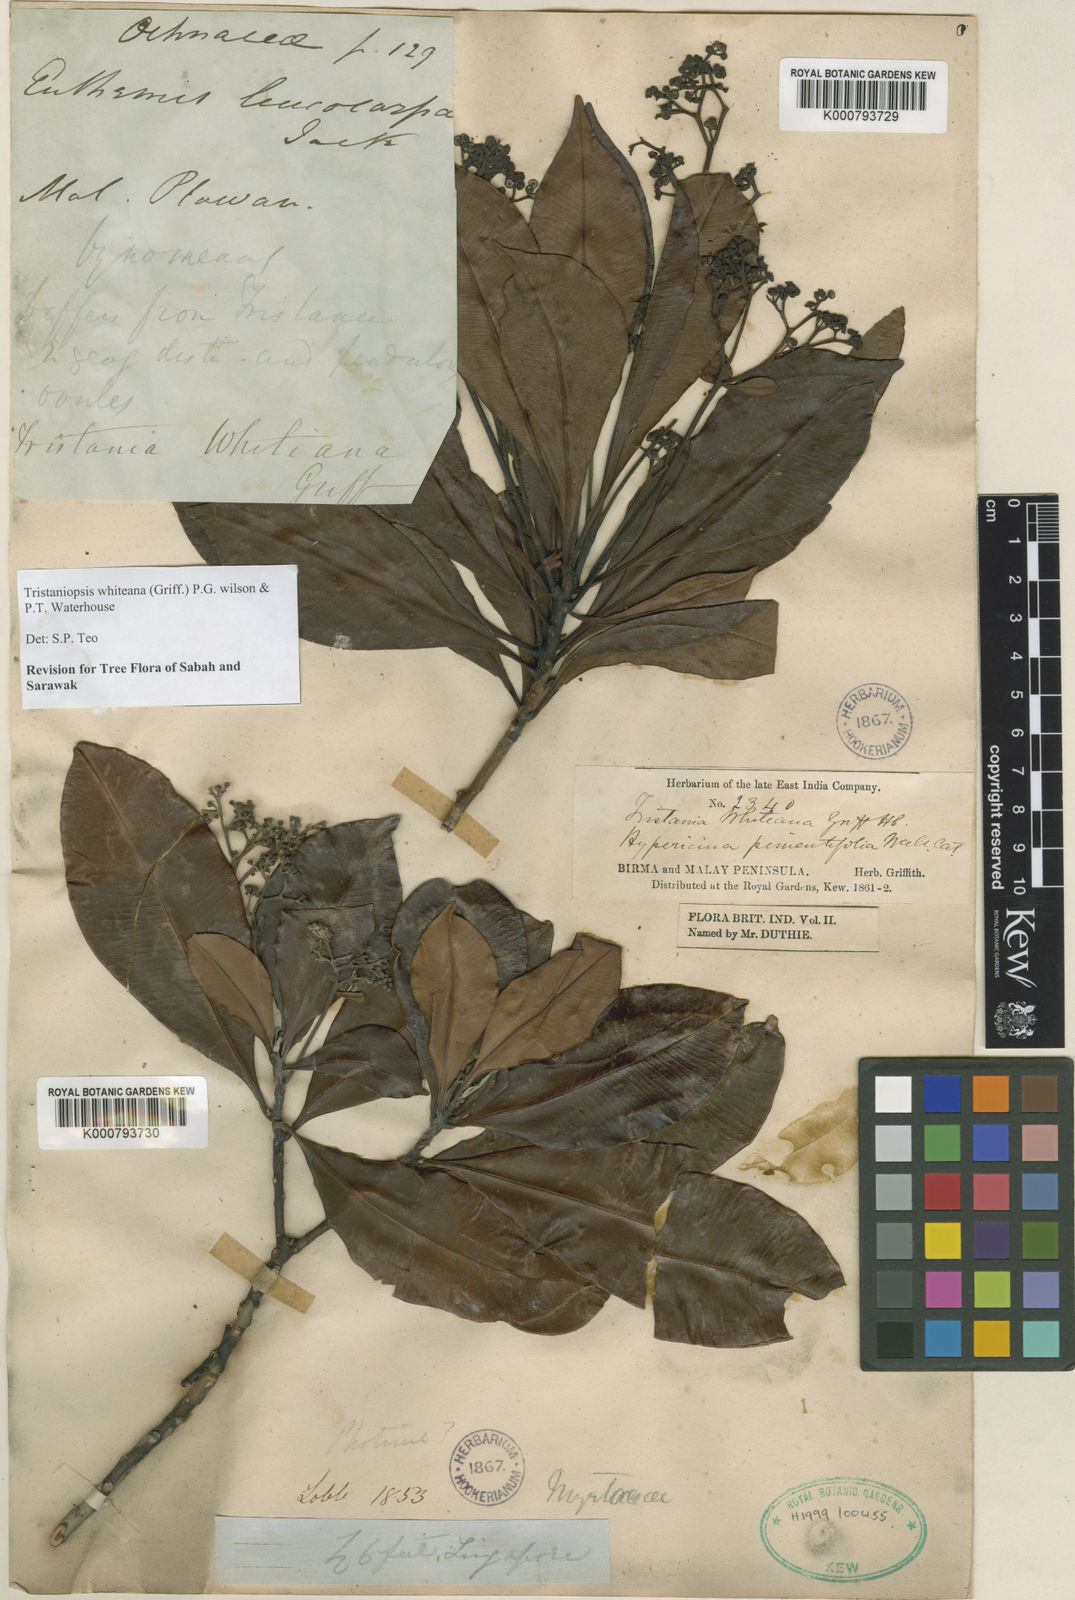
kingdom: Plantae
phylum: Tracheophyta
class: Magnoliopsida
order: Myrtales
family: Myrtaceae
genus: Tristaniopsis
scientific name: Tristaniopsis whiteana
